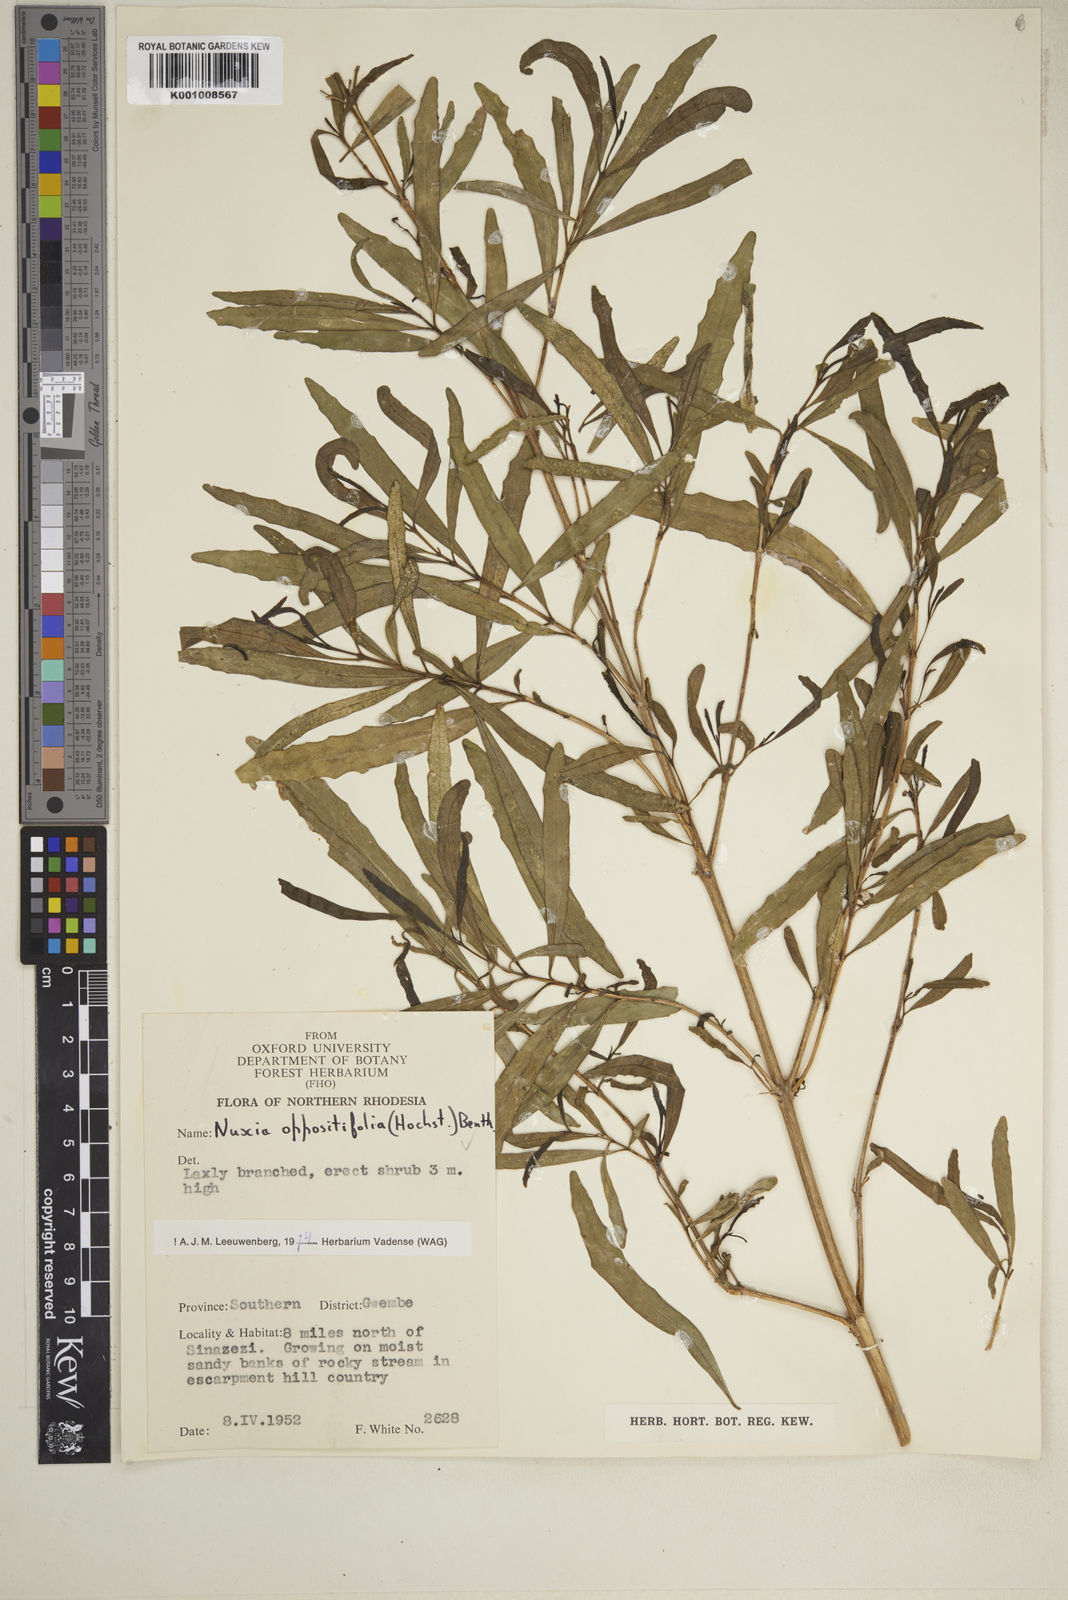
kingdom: Plantae
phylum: Tracheophyta
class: Magnoliopsida
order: Lamiales
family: Stilbaceae
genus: Nuxia
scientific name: Nuxia oppositifolia
